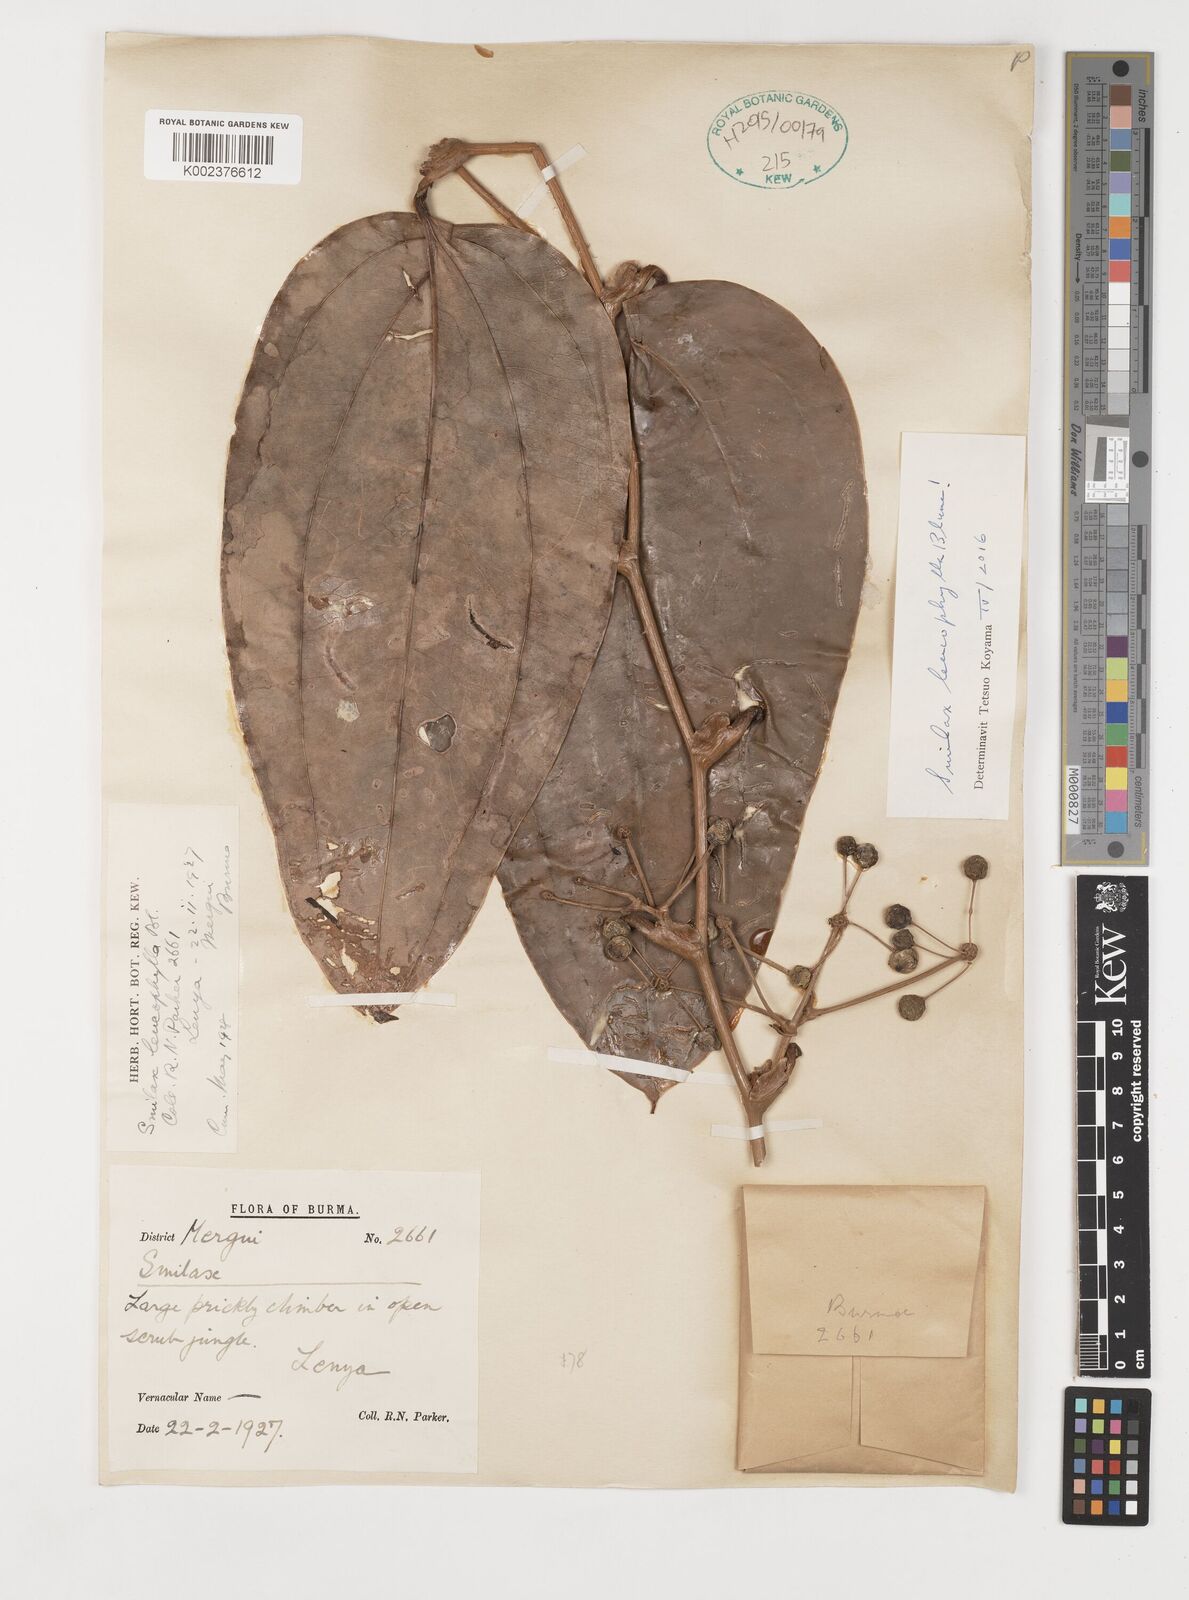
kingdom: Plantae
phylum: Tracheophyta
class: Liliopsida
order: Liliales
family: Smilacaceae
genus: Smilax
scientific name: Smilax leucophylla
